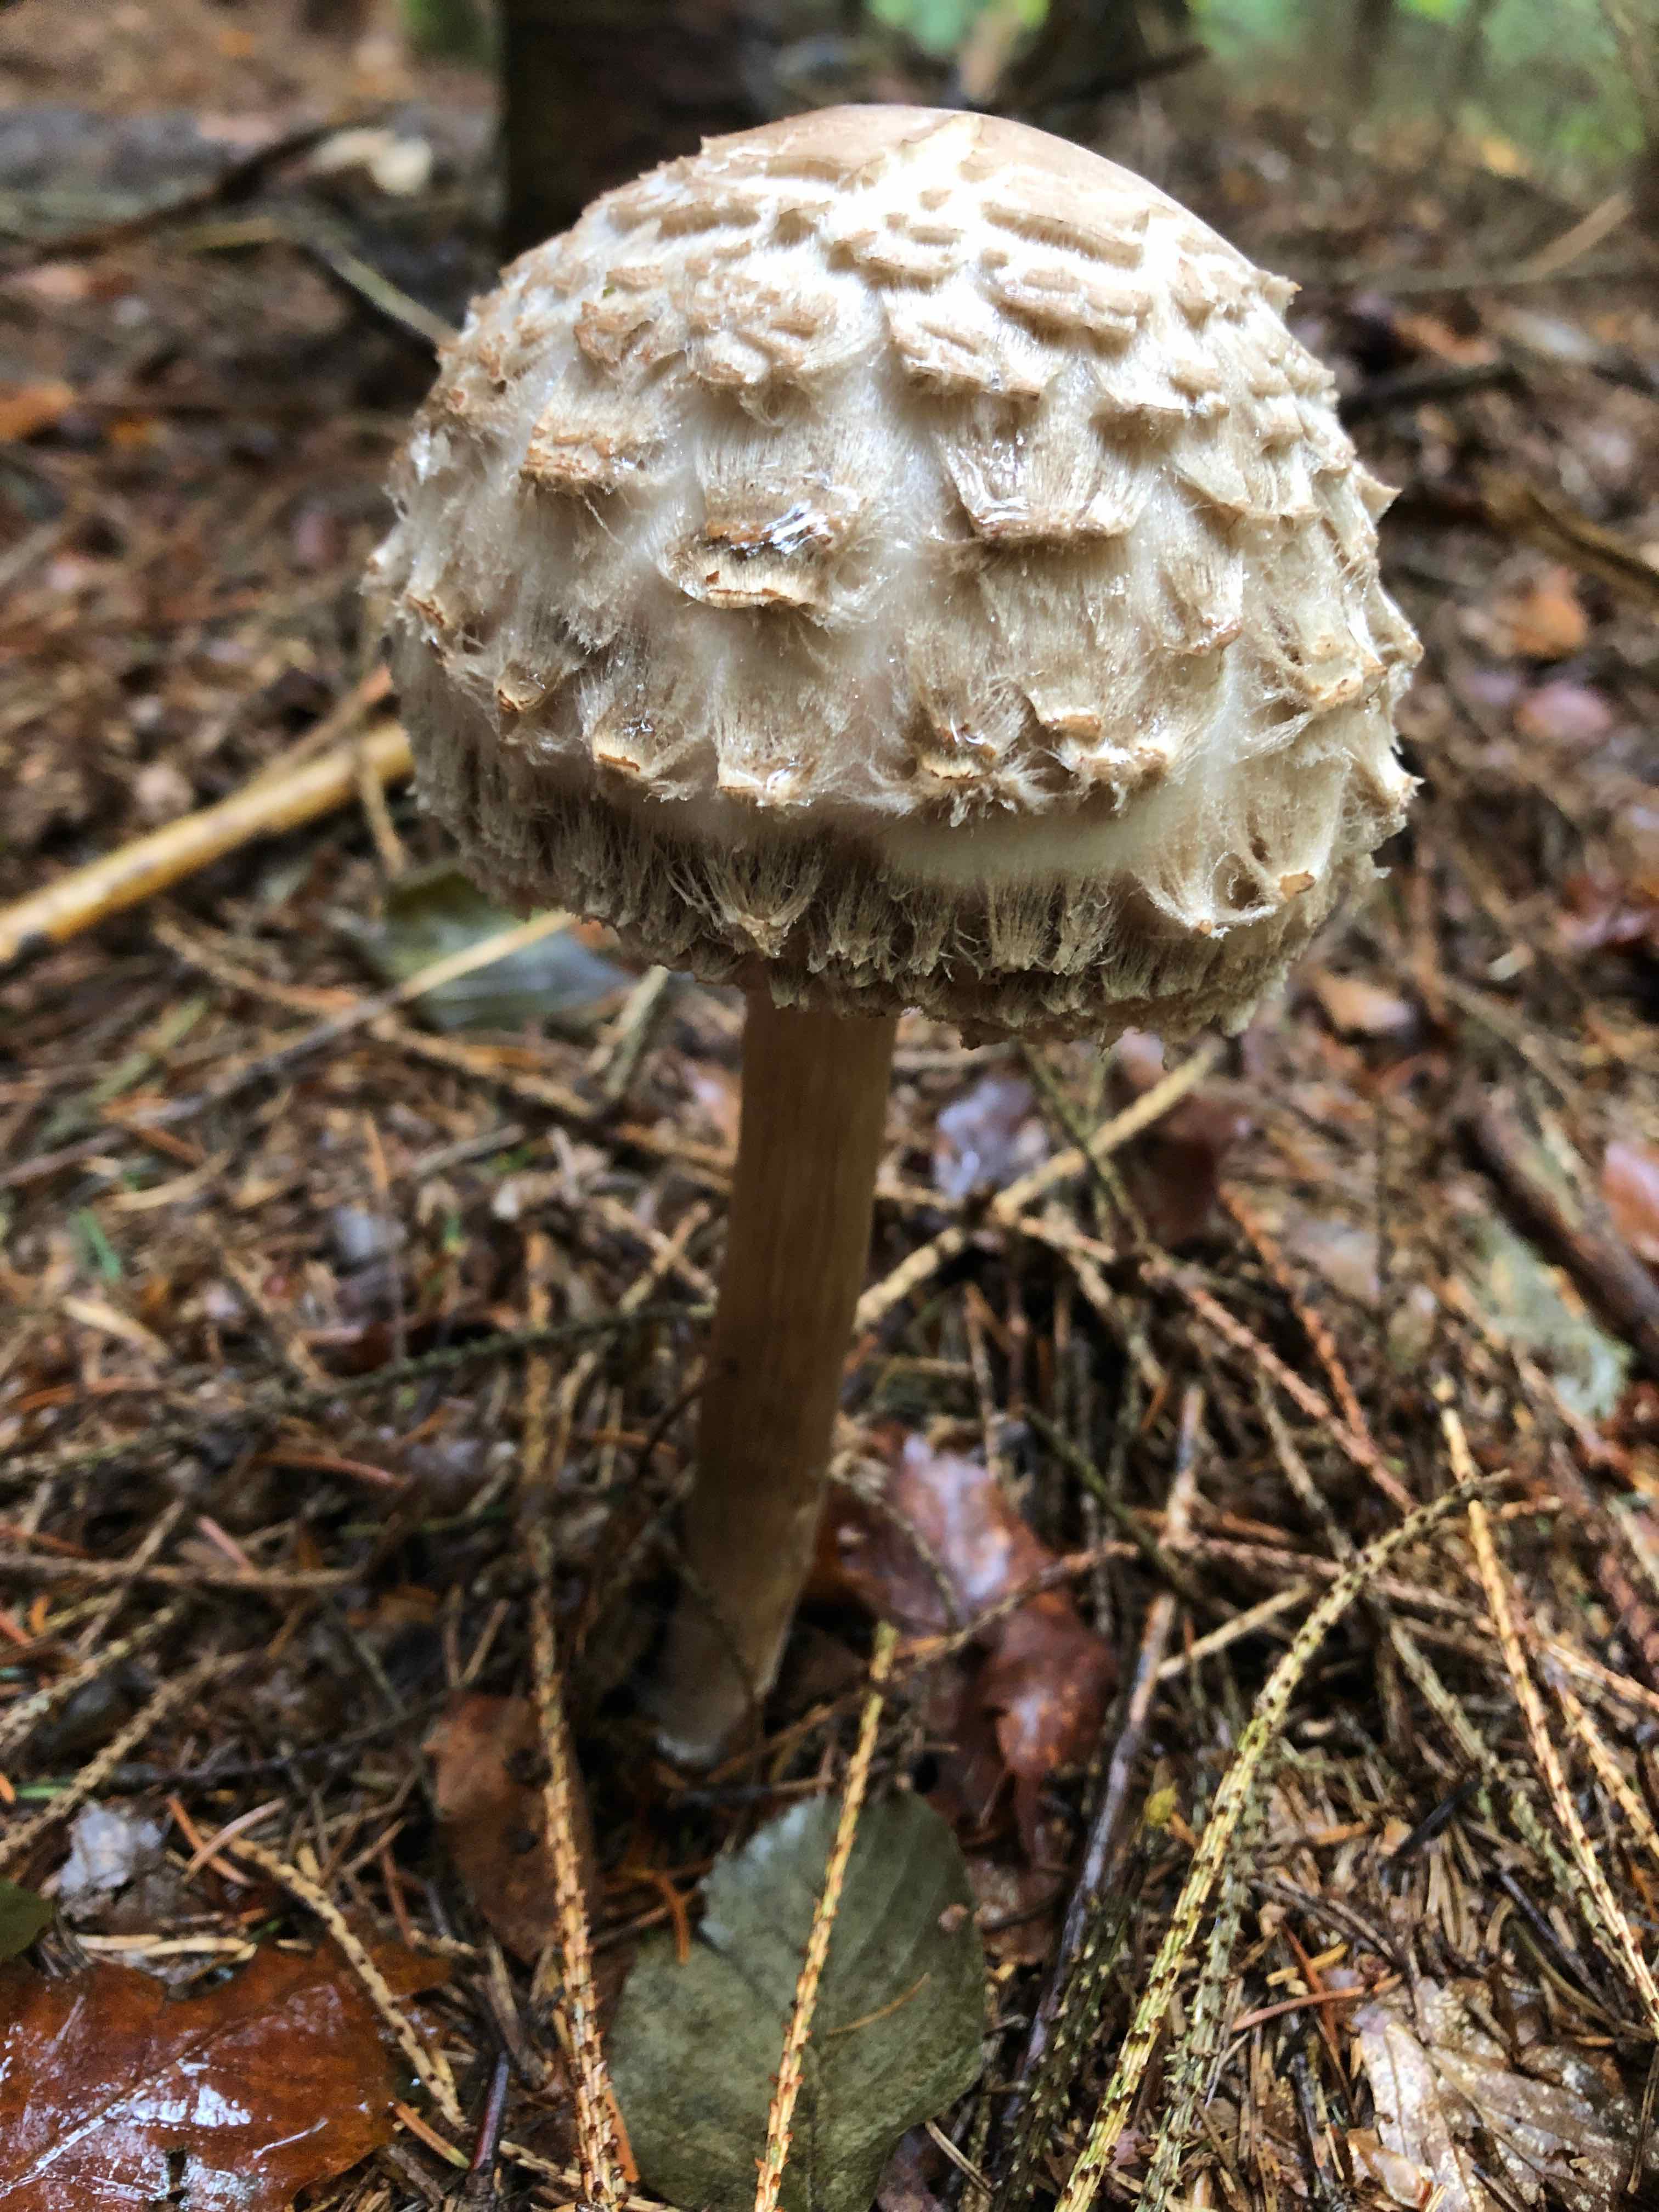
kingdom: Fungi
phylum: Basidiomycota
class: Agaricomycetes
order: Agaricales
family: Agaricaceae
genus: Chlorophyllum
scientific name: Chlorophyllum olivieri
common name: almindelig rabarberhat
